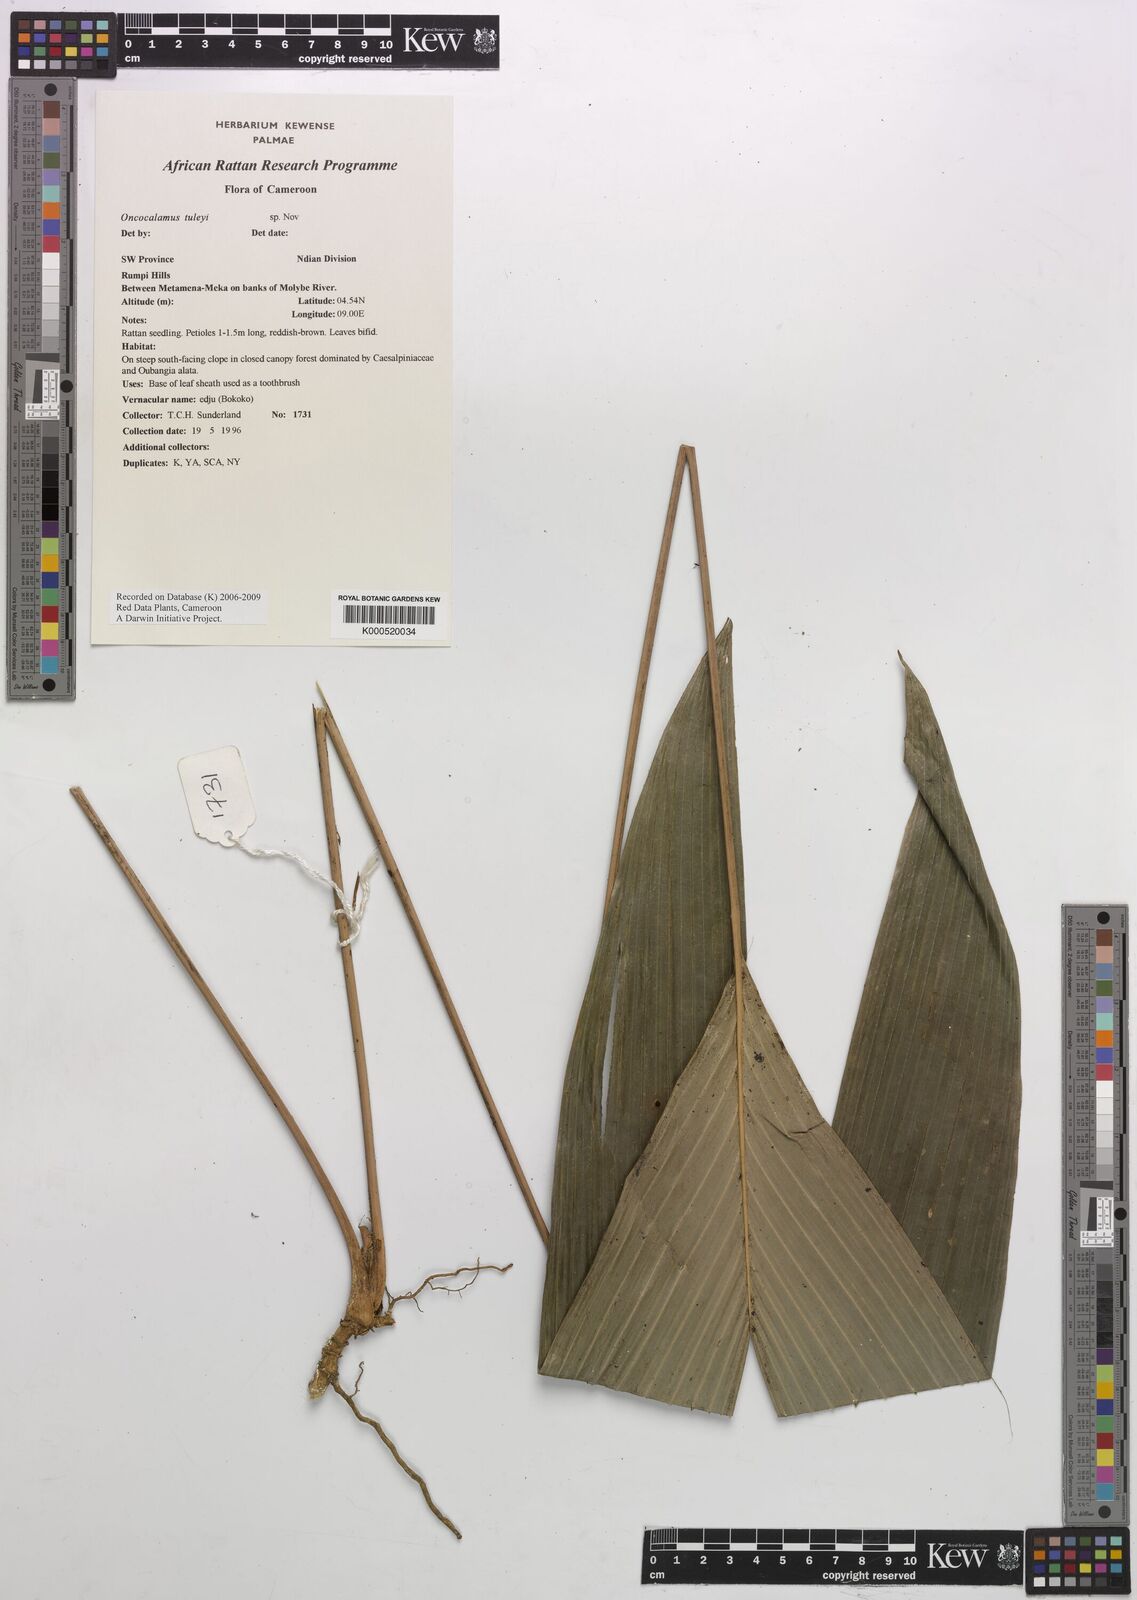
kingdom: Plantae
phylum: Tracheophyta
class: Liliopsida
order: Arecales
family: Arecaceae
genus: Oncocalamus
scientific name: Oncocalamus tuleyi
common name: Rattan
